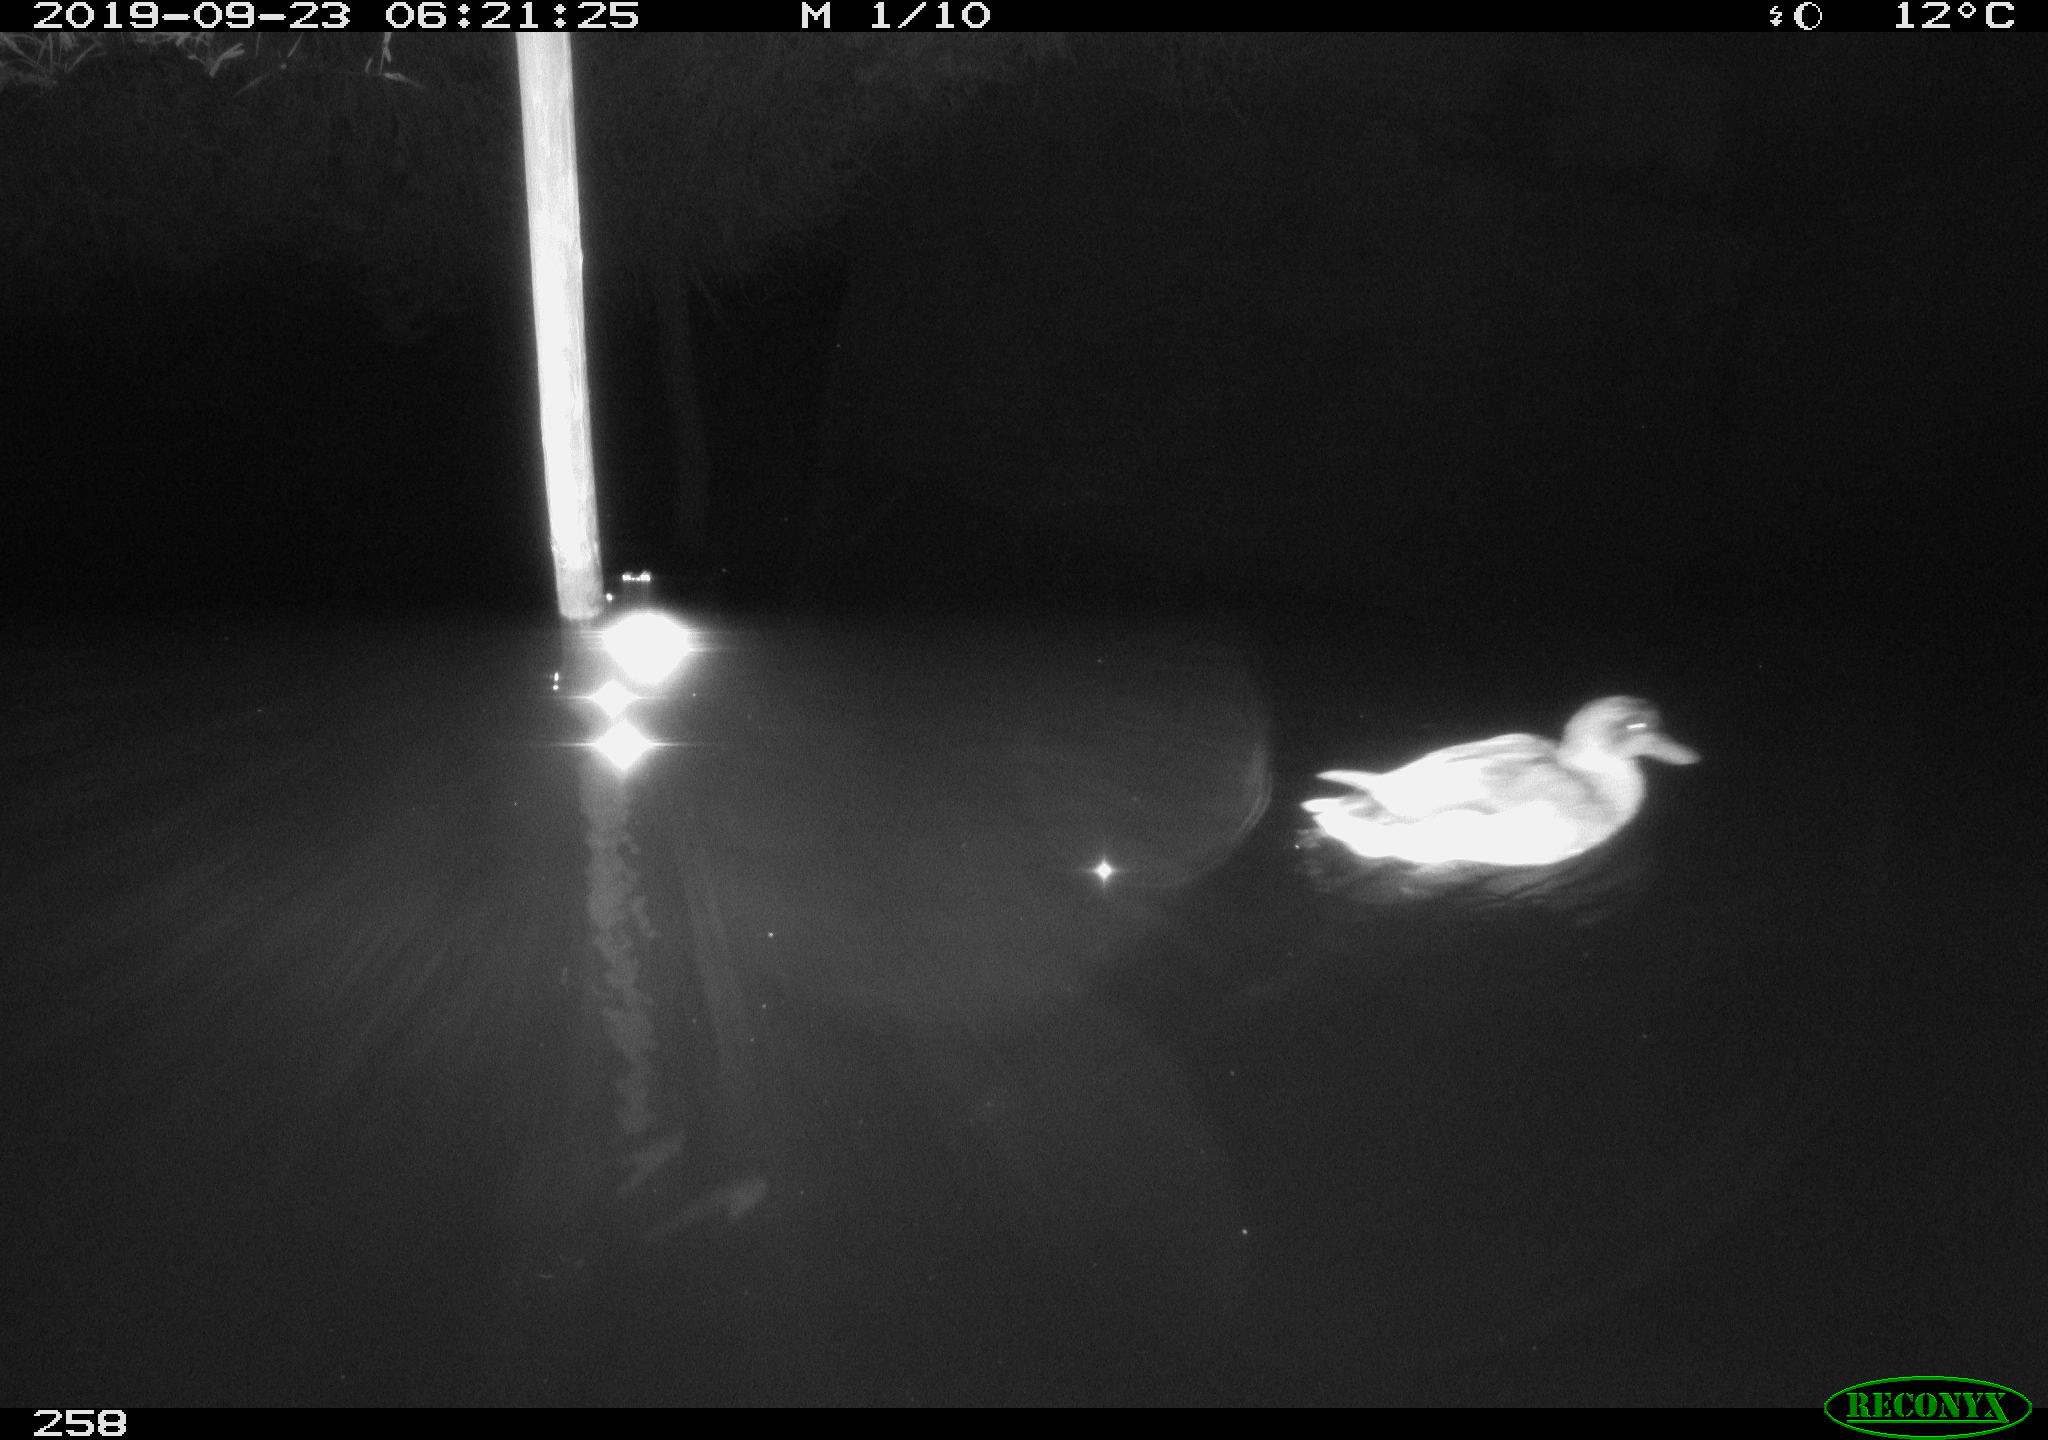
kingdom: Animalia
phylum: Chordata
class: Aves
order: Anseriformes
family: Anatidae
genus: Anas
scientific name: Anas platyrhynchos
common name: Mallard
